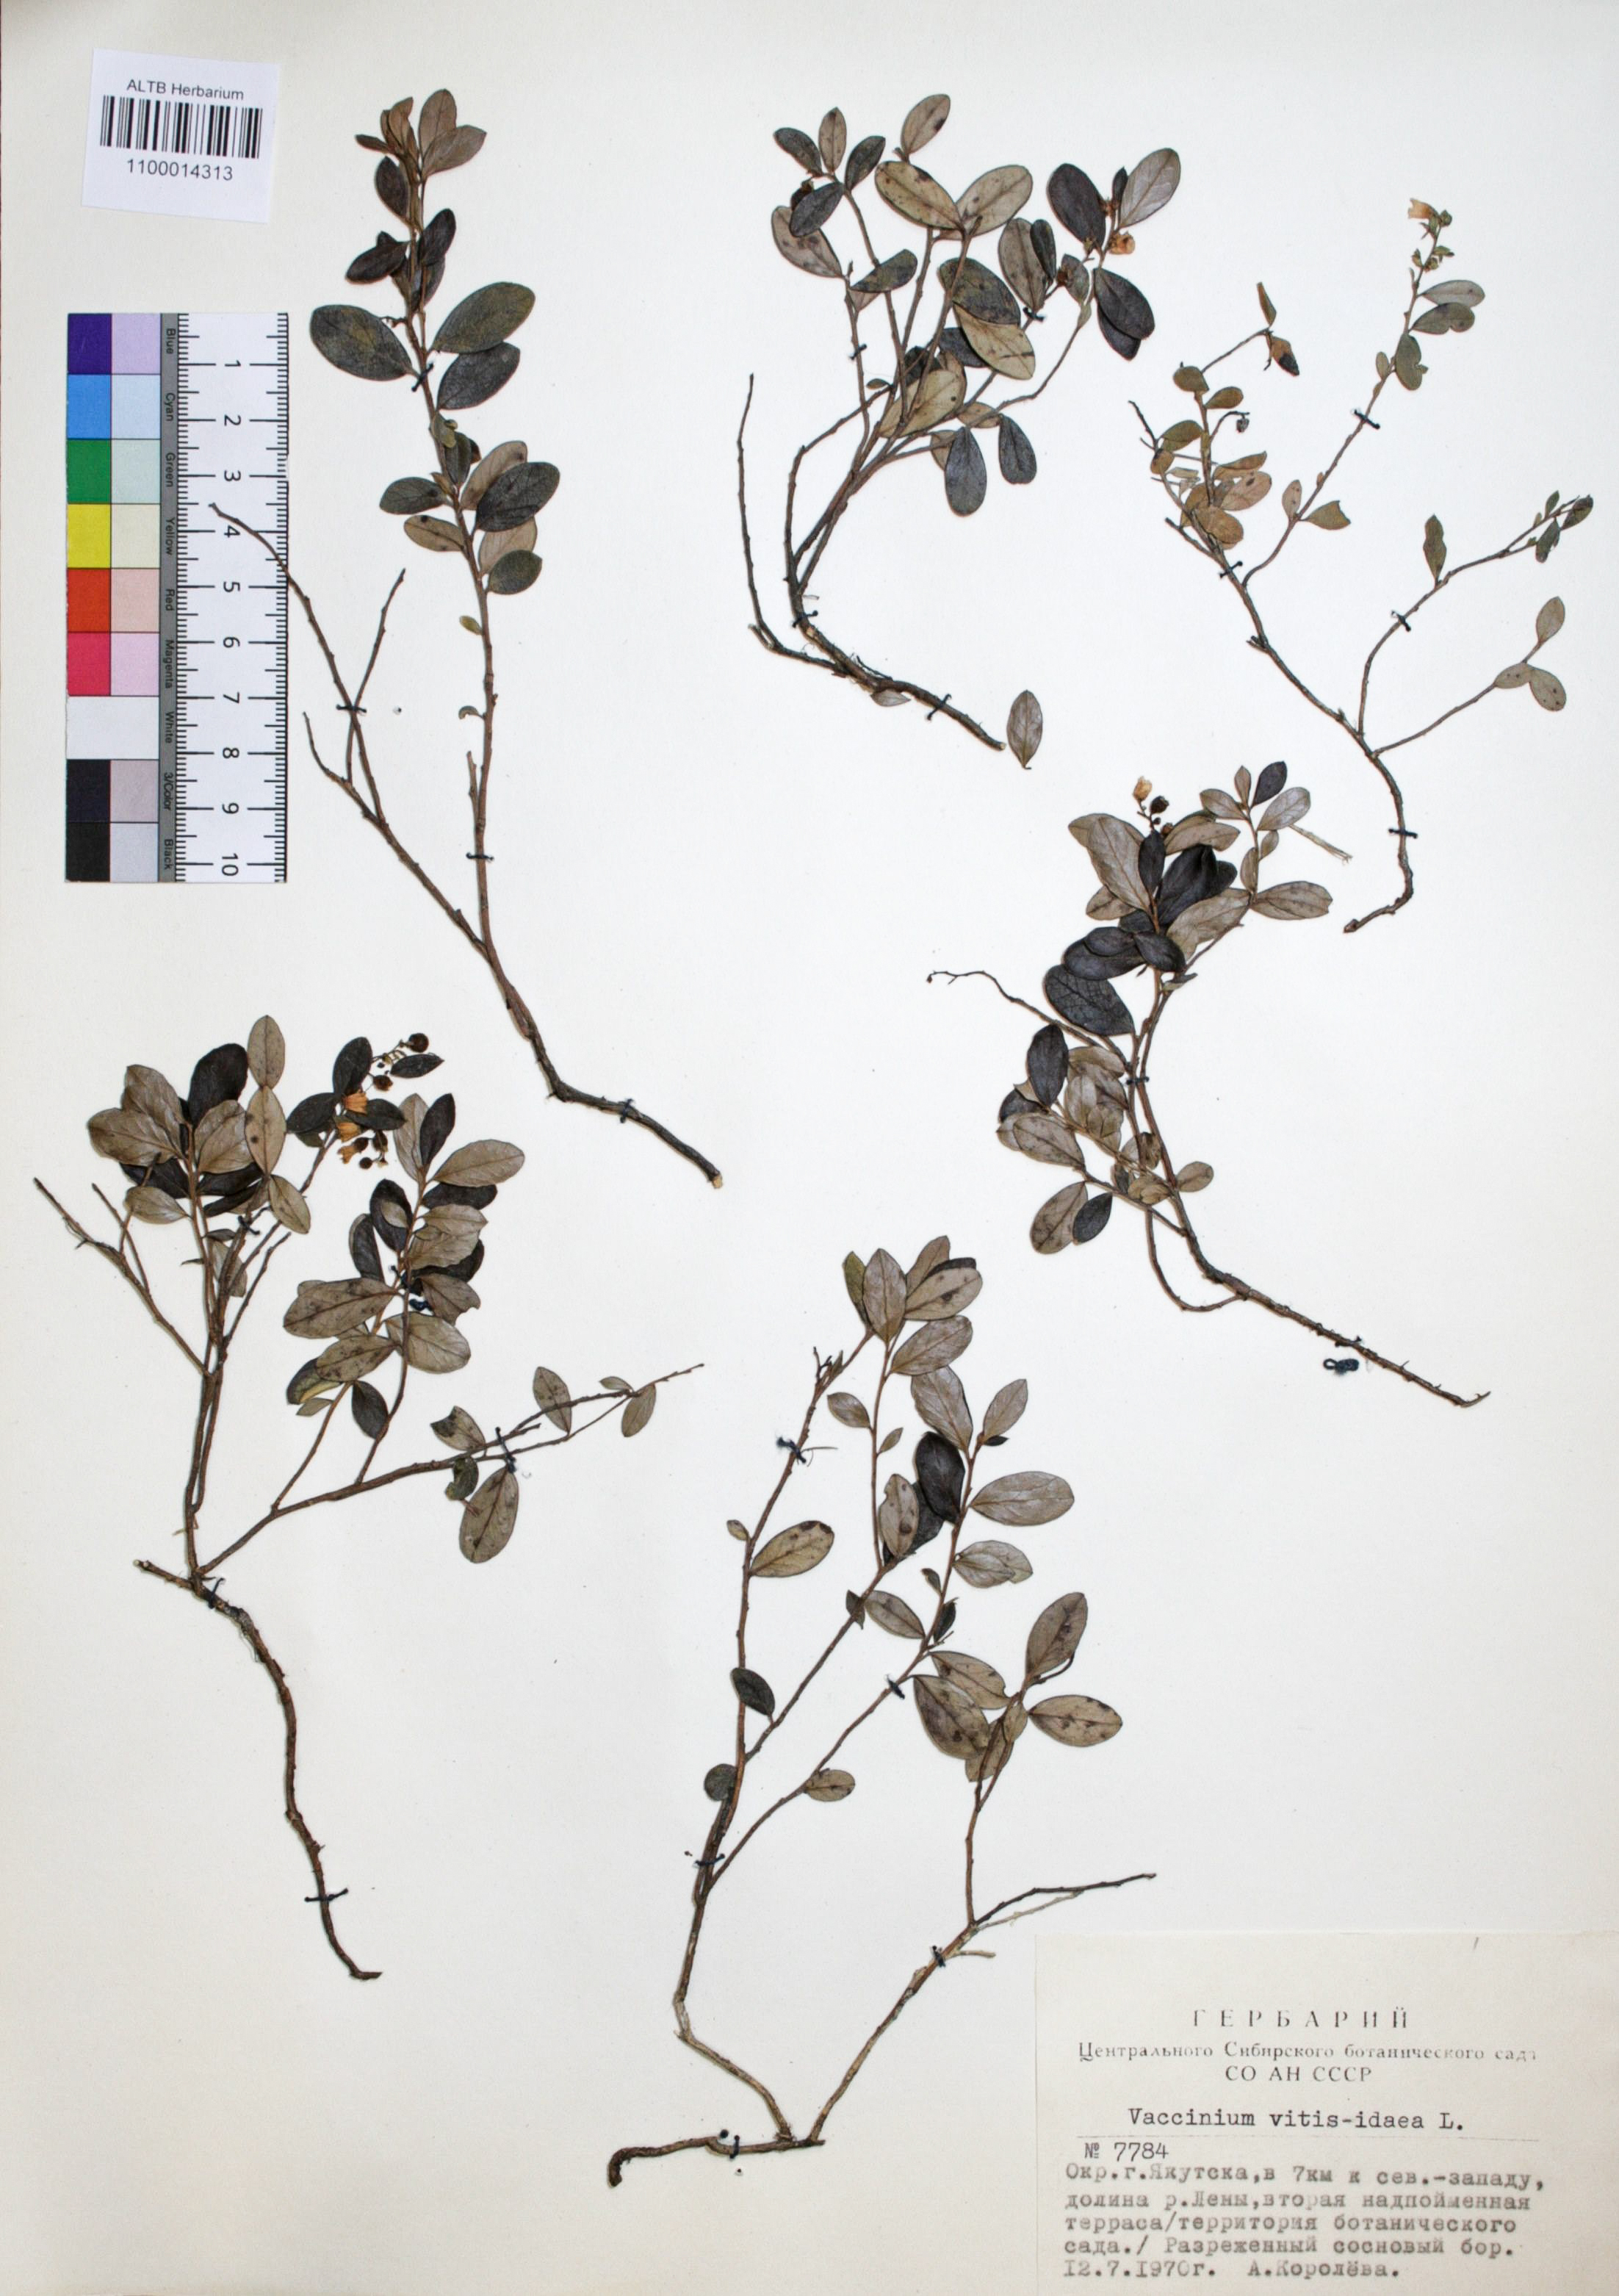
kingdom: Plantae
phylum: Tracheophyta
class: Magnoliopsida
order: Ericales
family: Ericaceae
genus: Vaccinium
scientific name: Vaccinium vitis-idaea
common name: Cowberry
